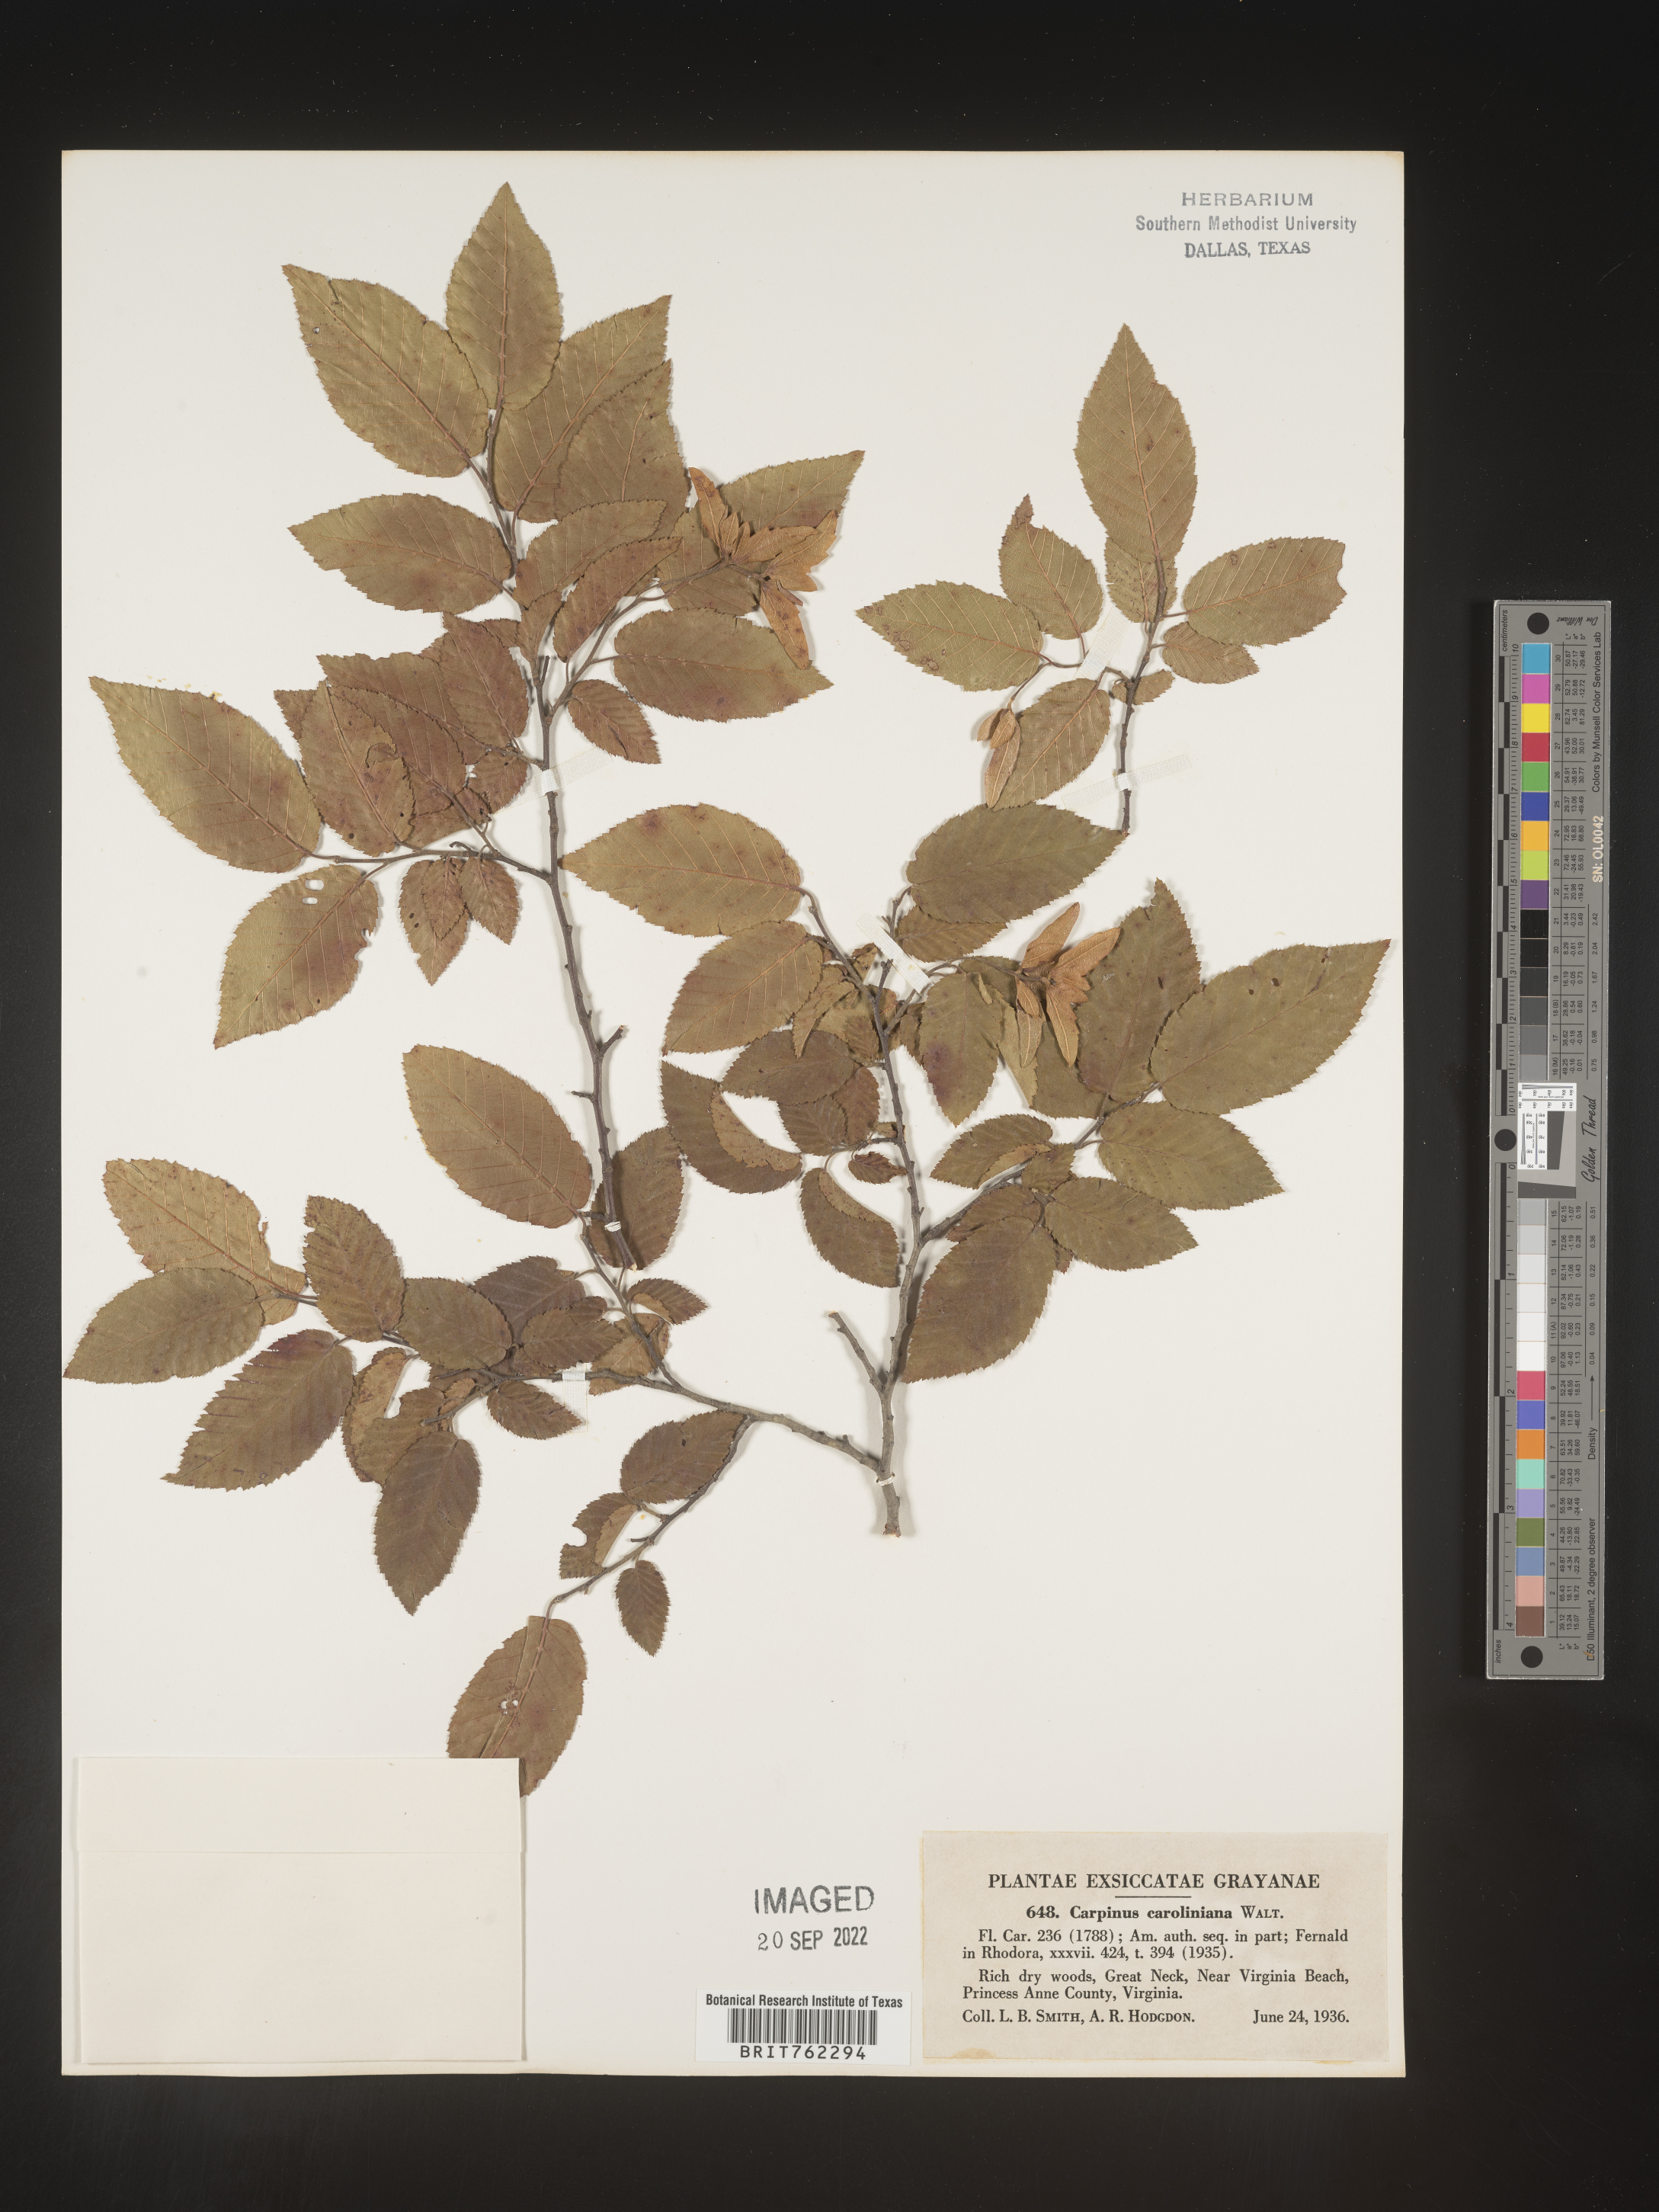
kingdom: Plantae
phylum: Tracheophyta
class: Magnoliopsida
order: Fagales
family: Betulaceae
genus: Carpinus
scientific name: Carpinus caroliniana
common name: American hornbeam
